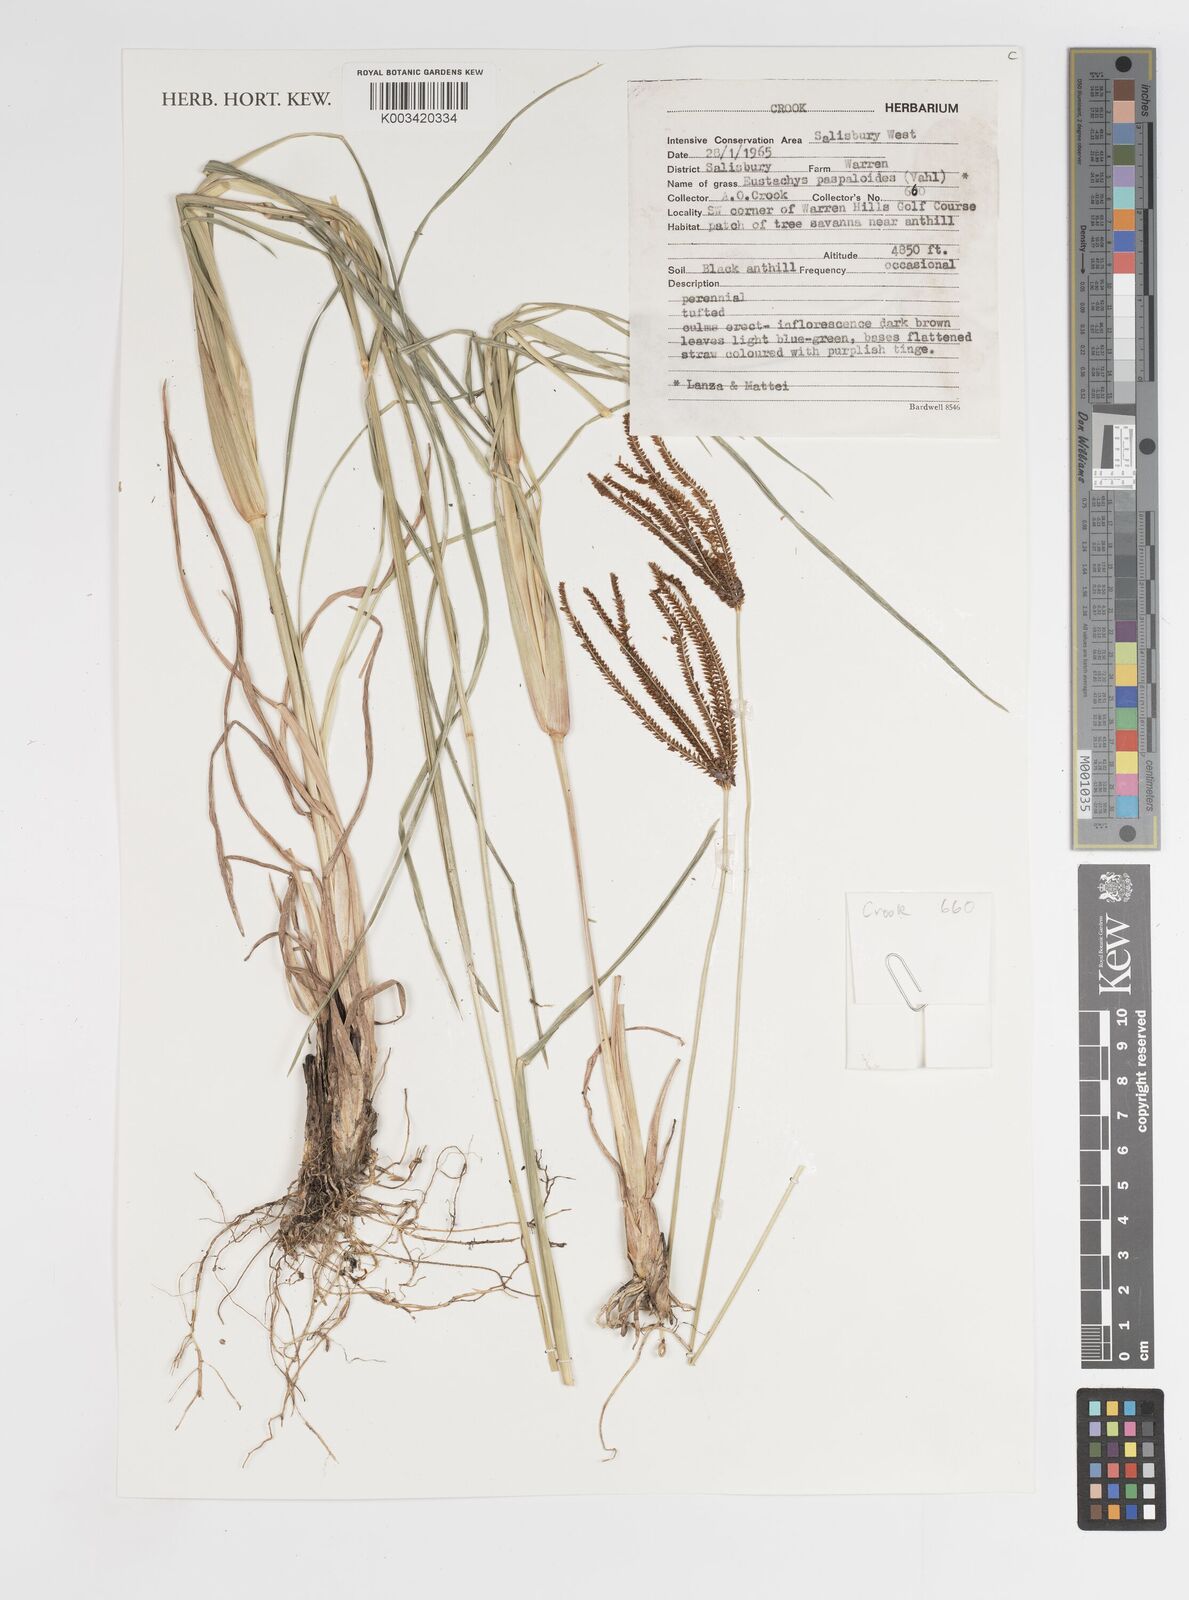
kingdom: Plantae
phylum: Tracheophyta
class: Liliopsida
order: Poales
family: Poaceae
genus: Eustachys
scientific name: Eustachys paspaloides
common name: Caribbean fingergrass
